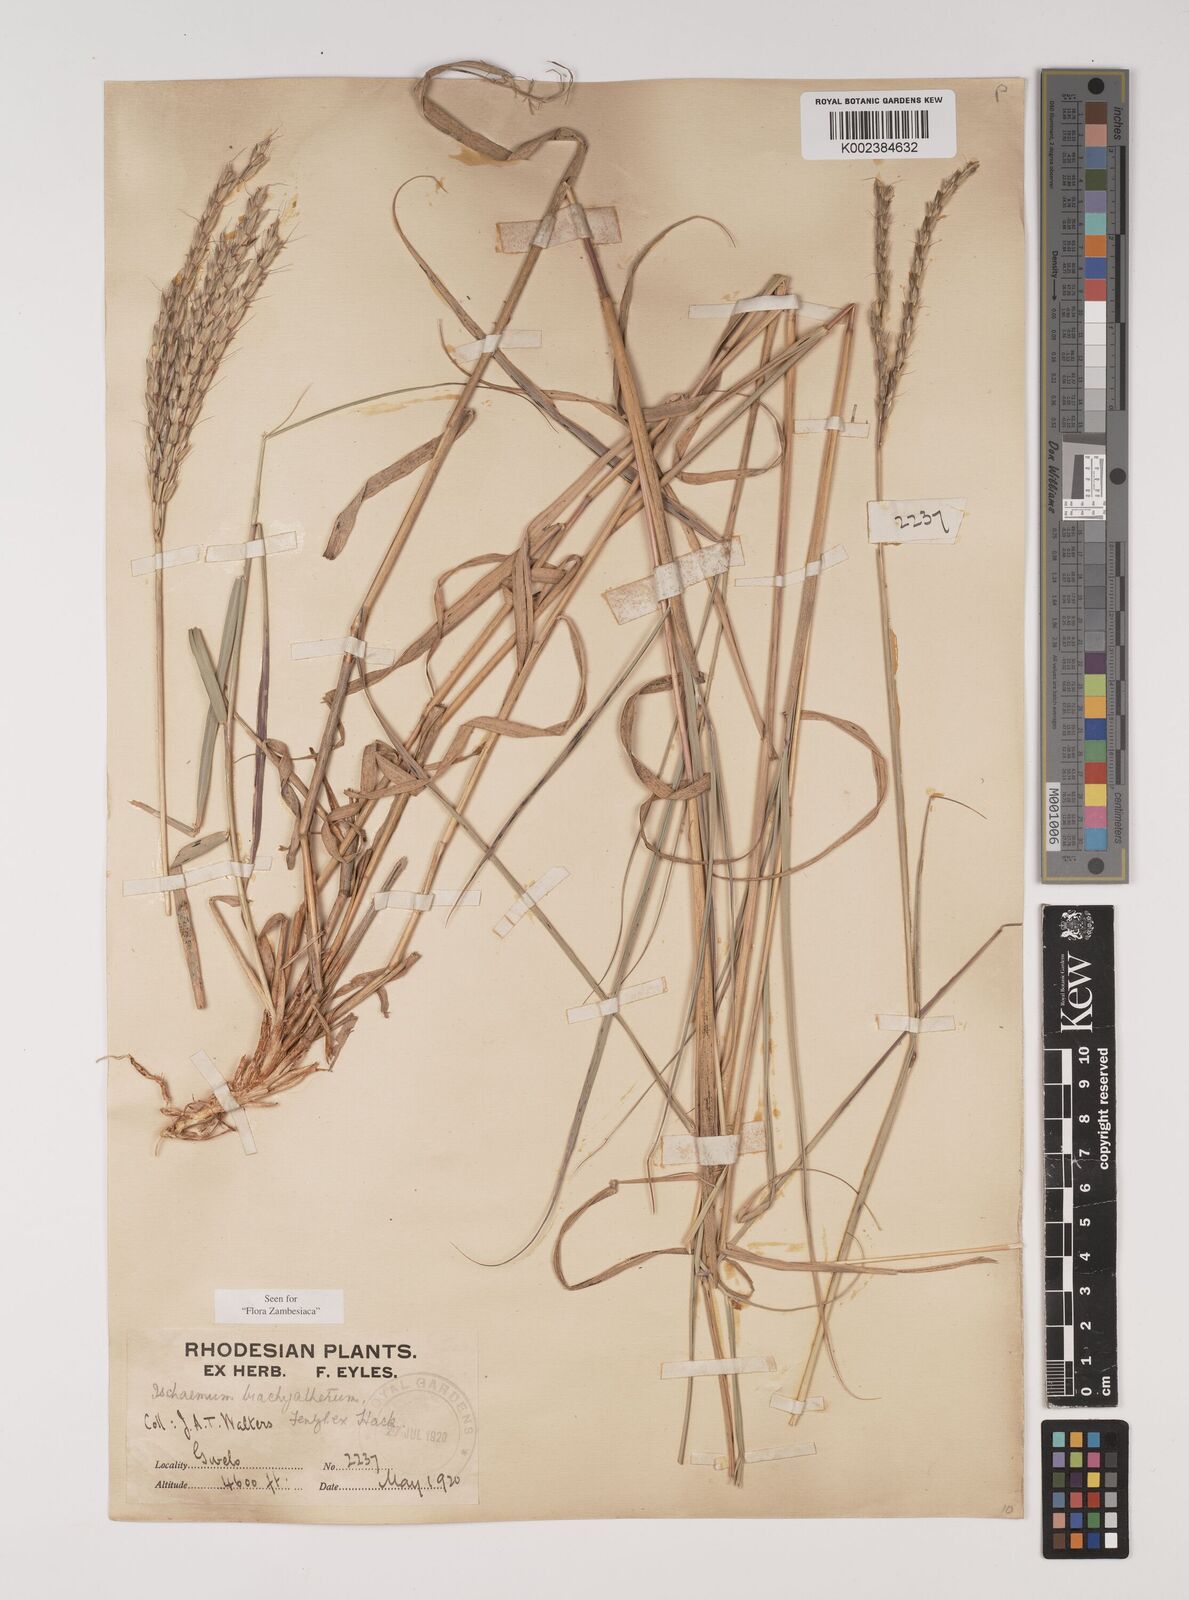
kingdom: Plantae
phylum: Tracheophyta
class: Liliopsida
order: Poales
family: Poaceae
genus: Ischaemum
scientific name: Ischaemum afrum
